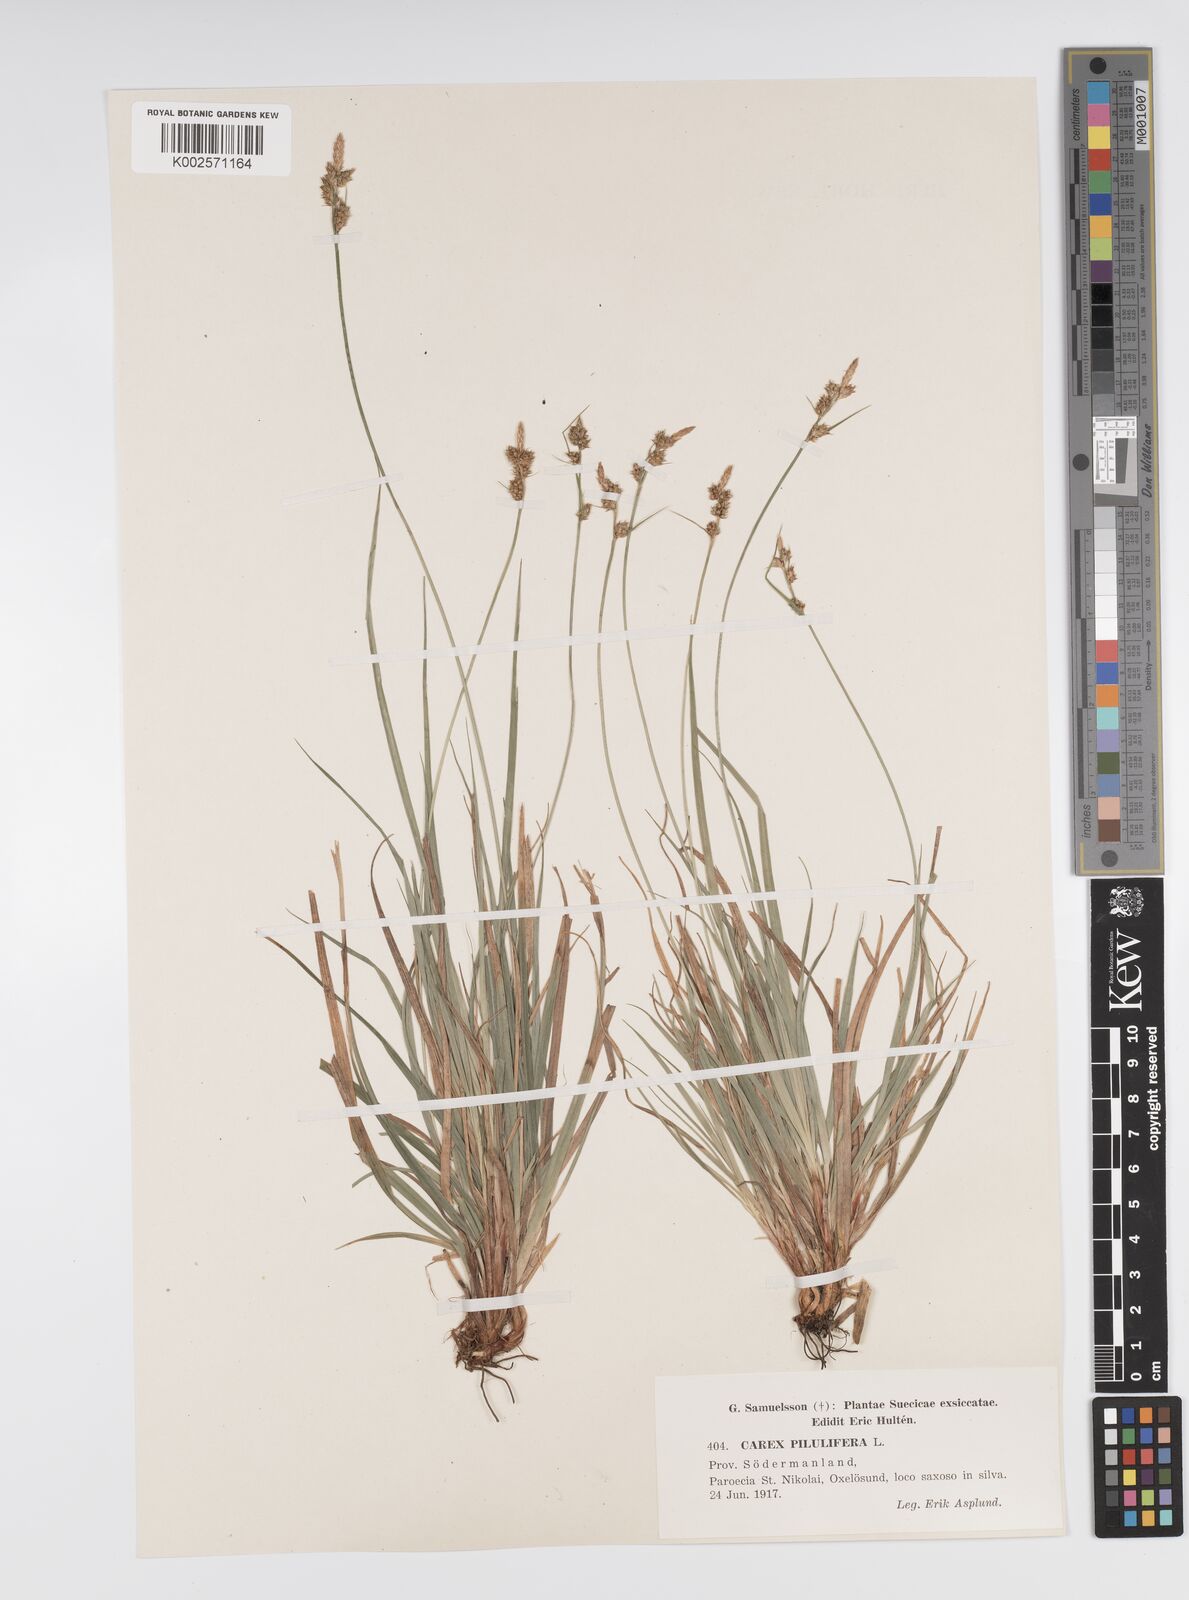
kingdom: Plantae
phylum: Tracheophyta
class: Liliopsida
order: Poales
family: Cyperaceae
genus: Carex
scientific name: Carex pilulifera
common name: Pill sedge
